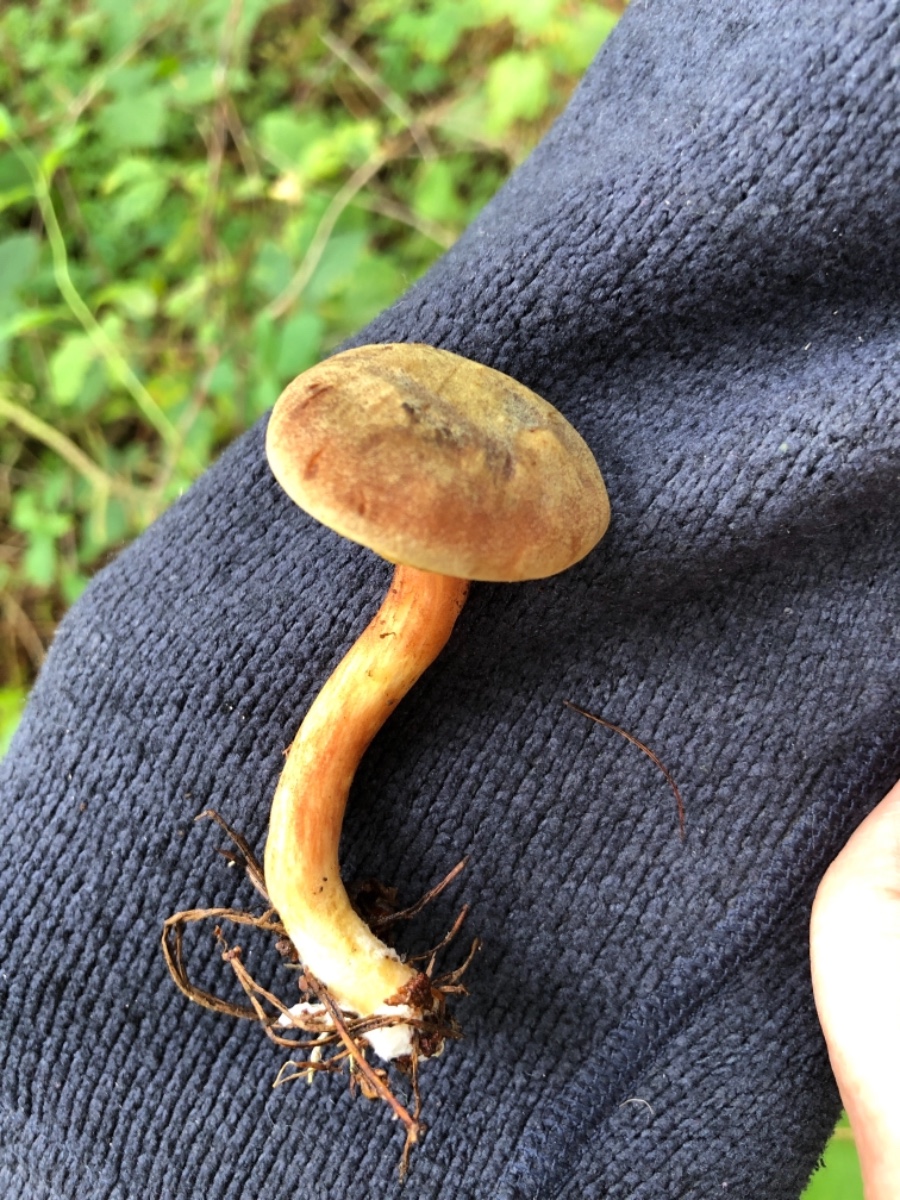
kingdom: Fungi
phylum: Basidiomycota
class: Agaricomycetes
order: Boletales
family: Boletaceae
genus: Xerocomus
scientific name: Xerocomus ferrugineus
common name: vaskeskinds-rørhat
